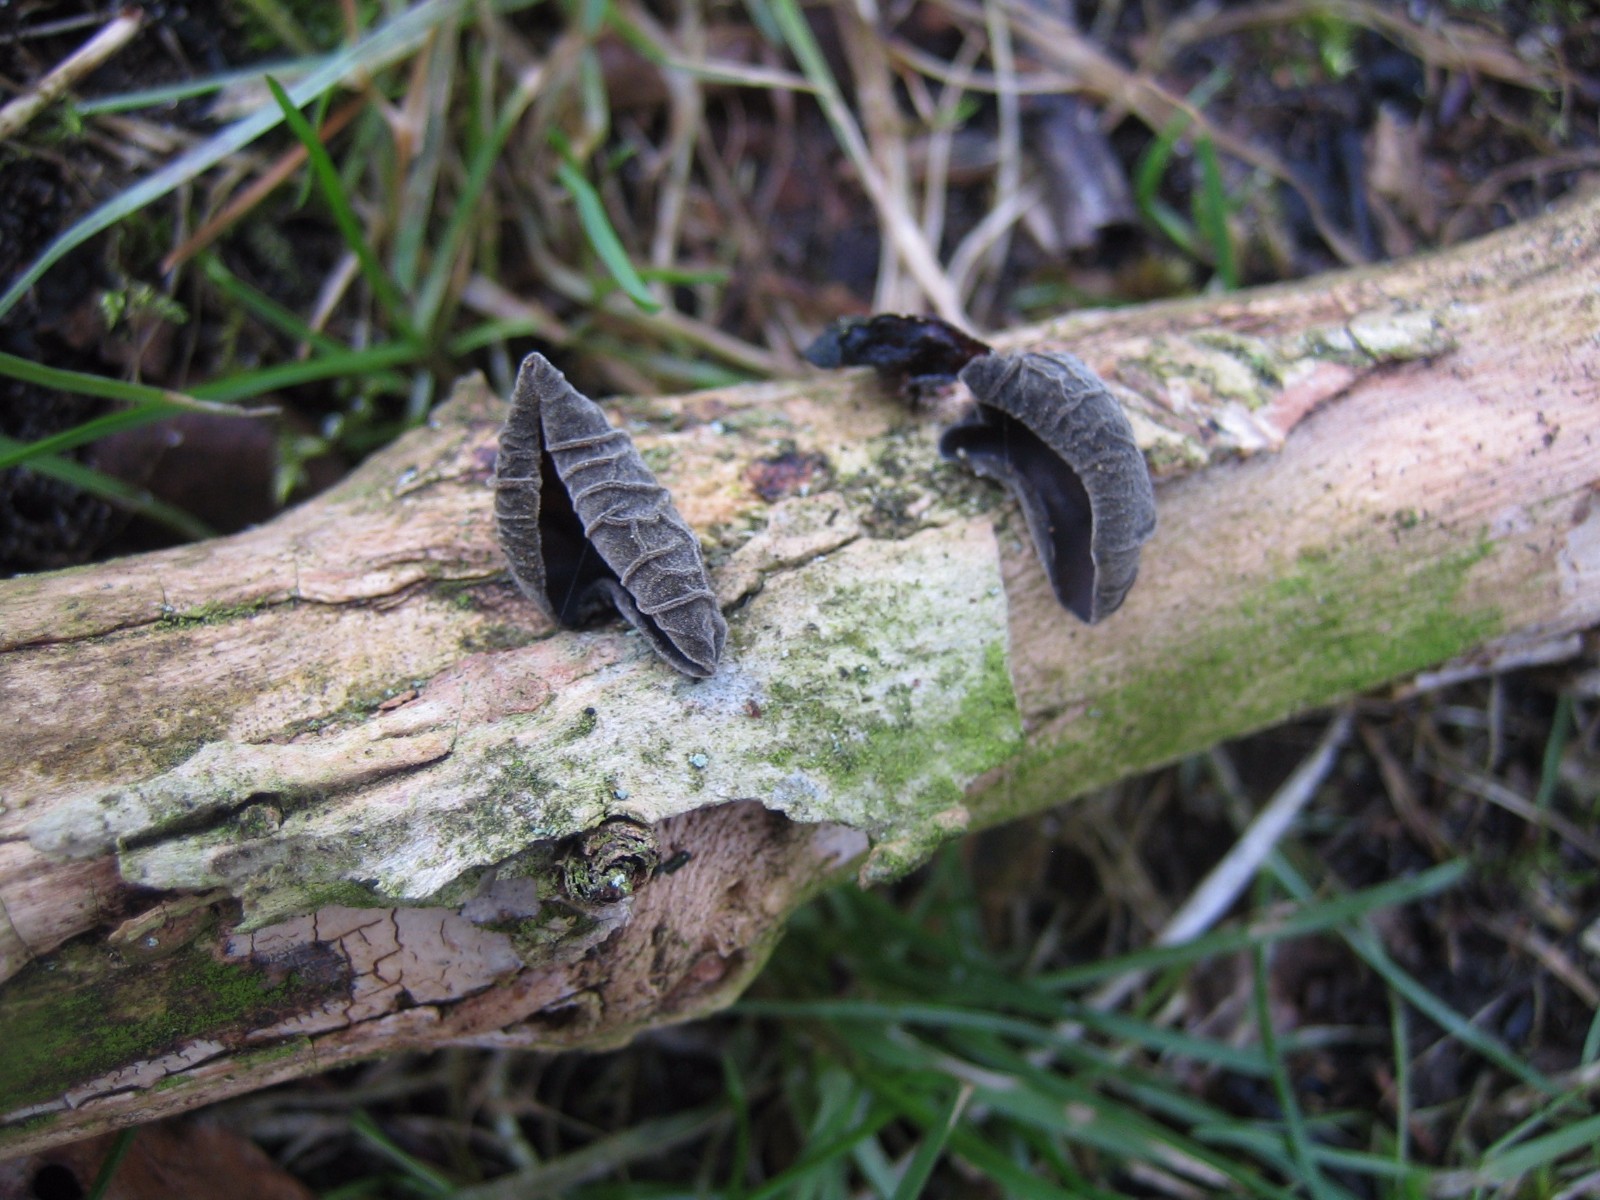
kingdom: Fungi
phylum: Basidiomycota
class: Agaricomycetes
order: Auriculariales
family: Auriculariaceae
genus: Auricularia
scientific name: Auricularia auricula-judae
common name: almindelig judasøre
